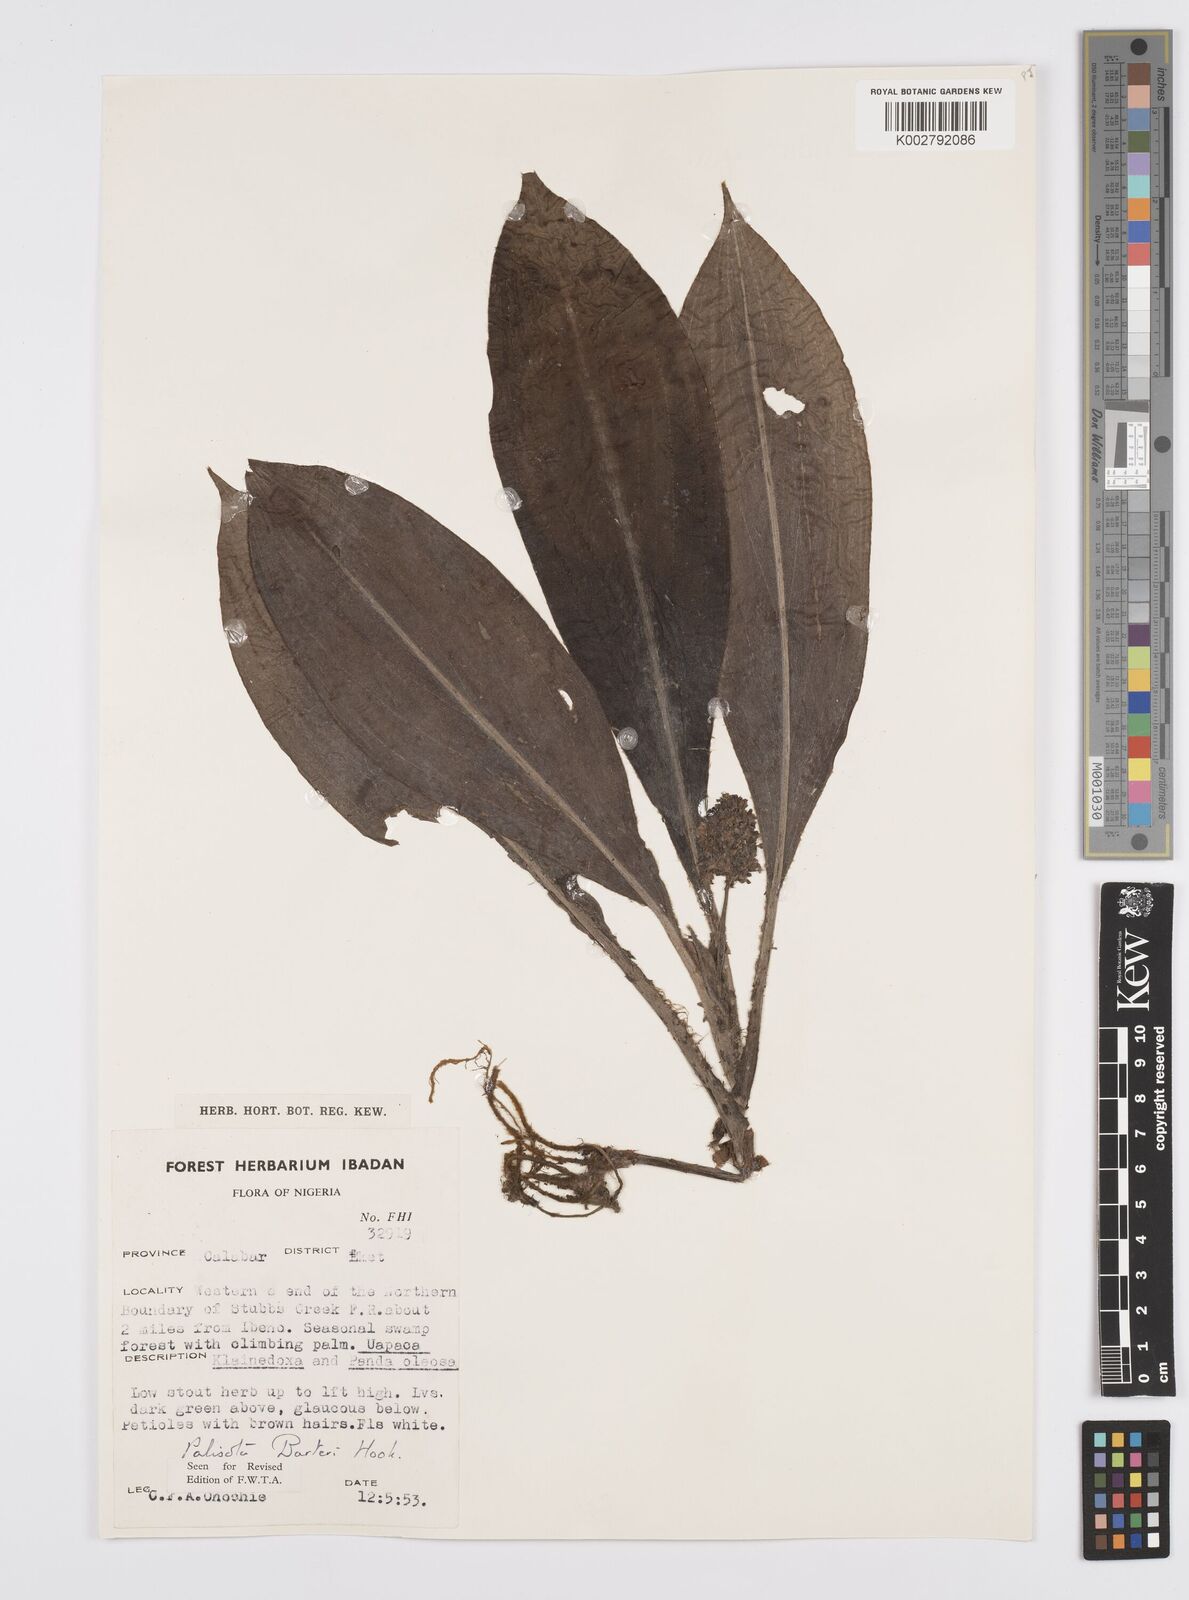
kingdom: Plantae
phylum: Tracheophyta
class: Liliopsida
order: Commelinales
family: Commelinaceae
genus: Palisota
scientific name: Palisota barteri
